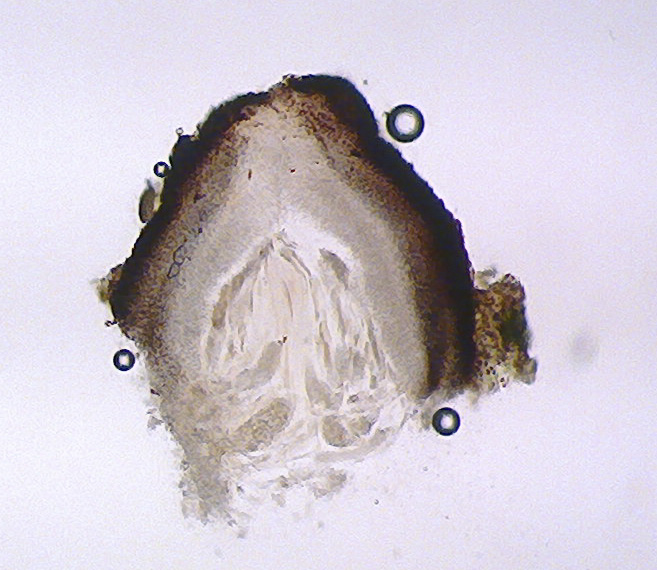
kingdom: Fungi
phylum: Ascomycota
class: Eurotiomycetes
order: Verrucariales
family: Verrucariaceae
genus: Agonimia
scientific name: Agonimia tristicula
